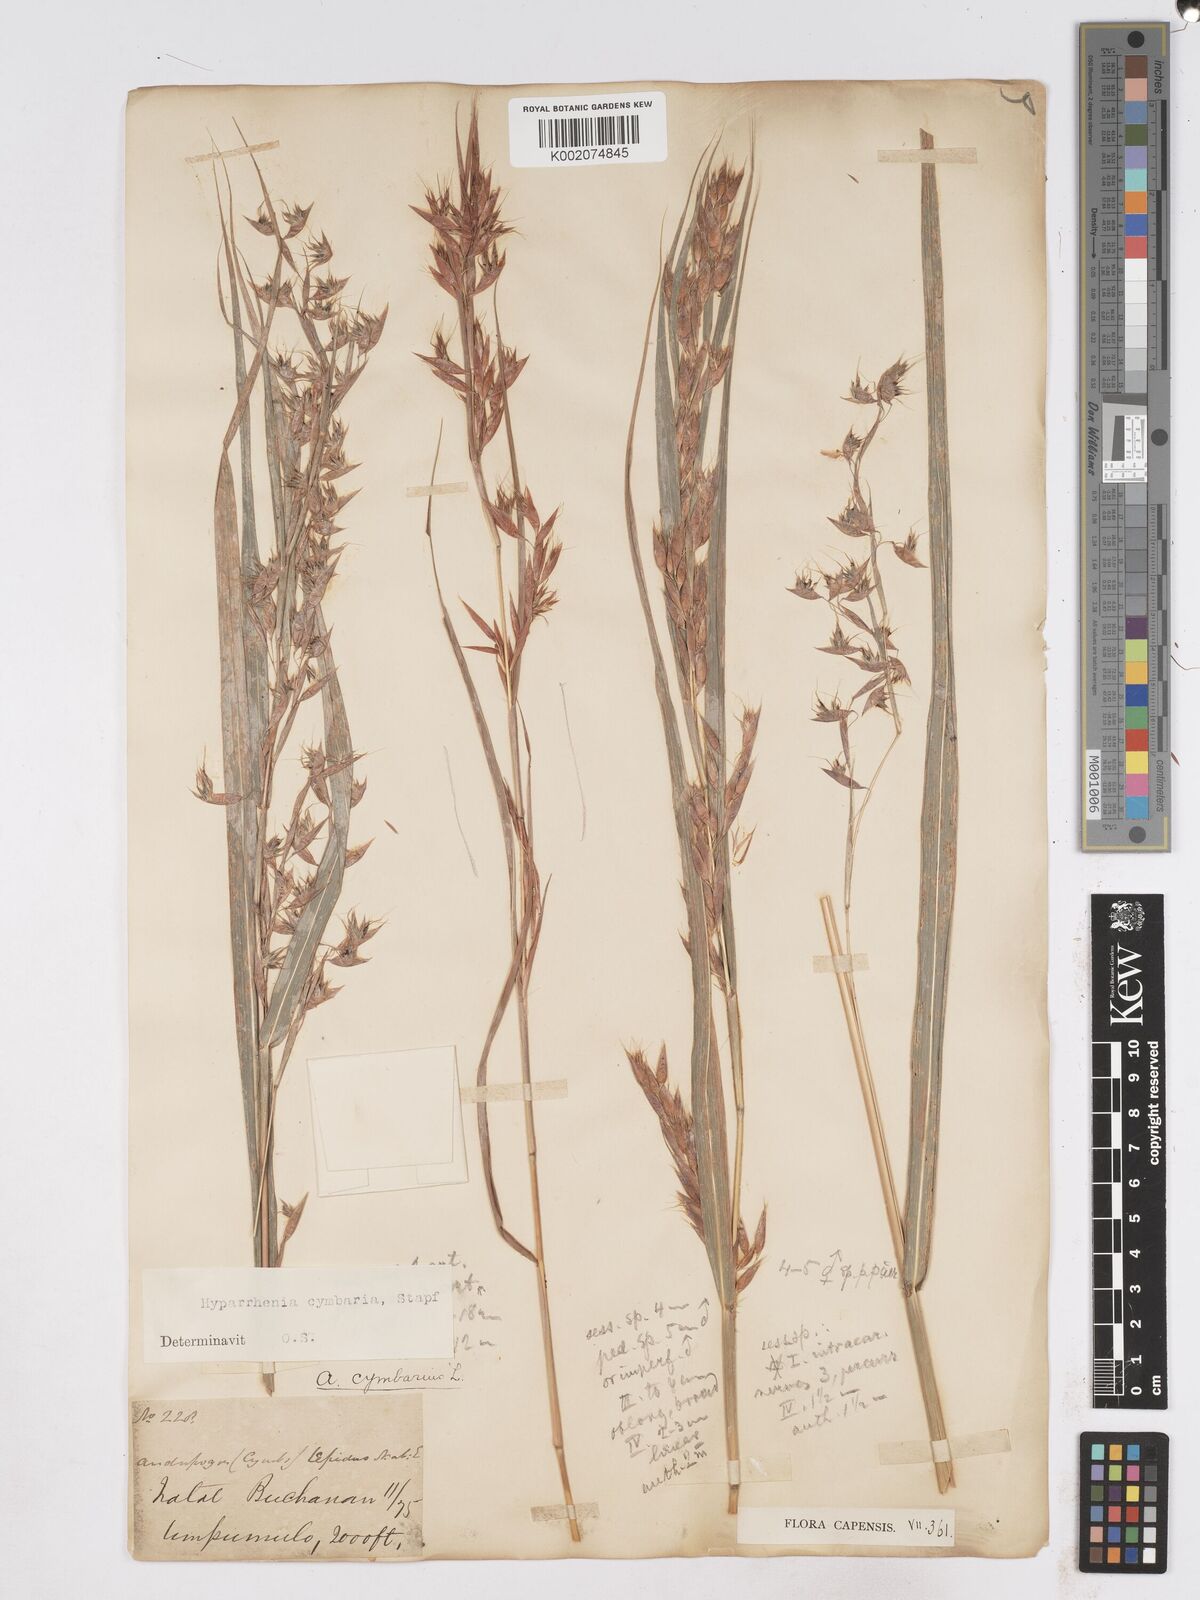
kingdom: Plantae
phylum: Tracheophyta
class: Liliopsida
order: Poales
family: Poaceae
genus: Hyparrhenia
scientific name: Hyparrhenia cymbaria
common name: Boat thatching grass
